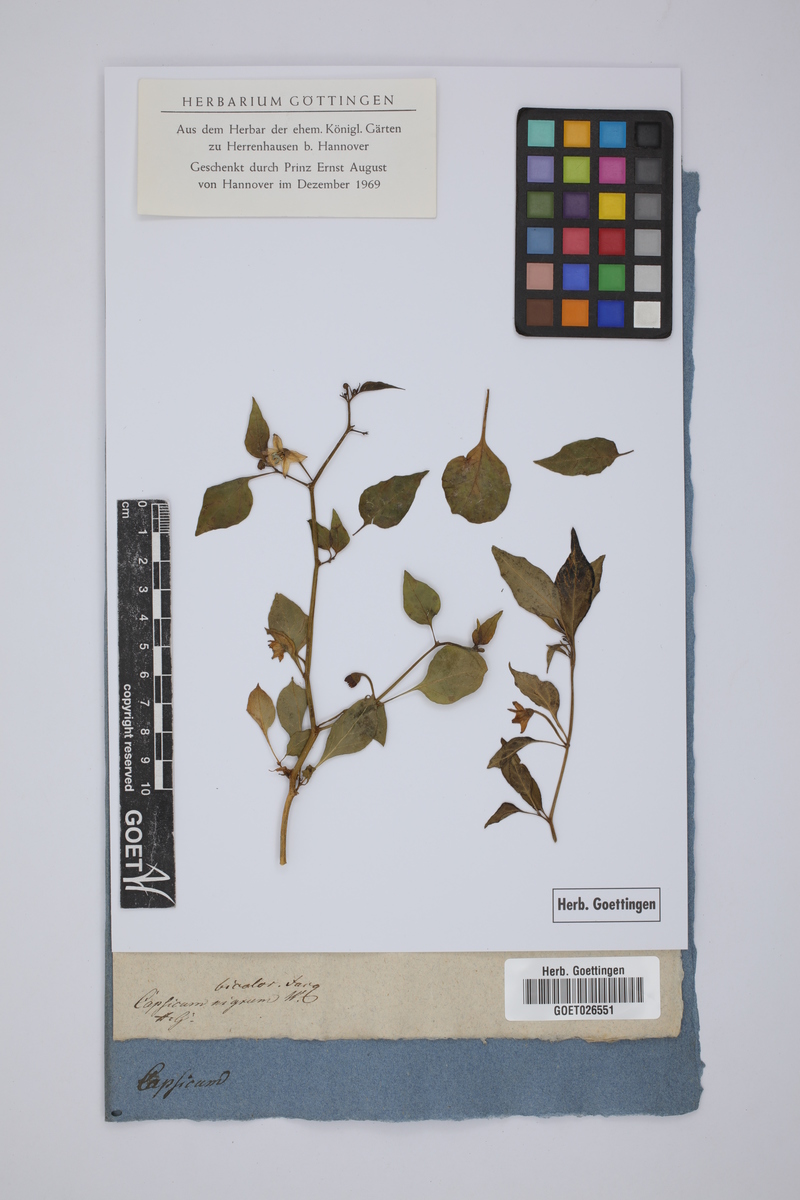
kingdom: Plantae
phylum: Tracheophyta
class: Magnoliopsida
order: Solanales
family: Solanaceae
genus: Capsicum
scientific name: Capsicum annuum
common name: Sweet pepper
